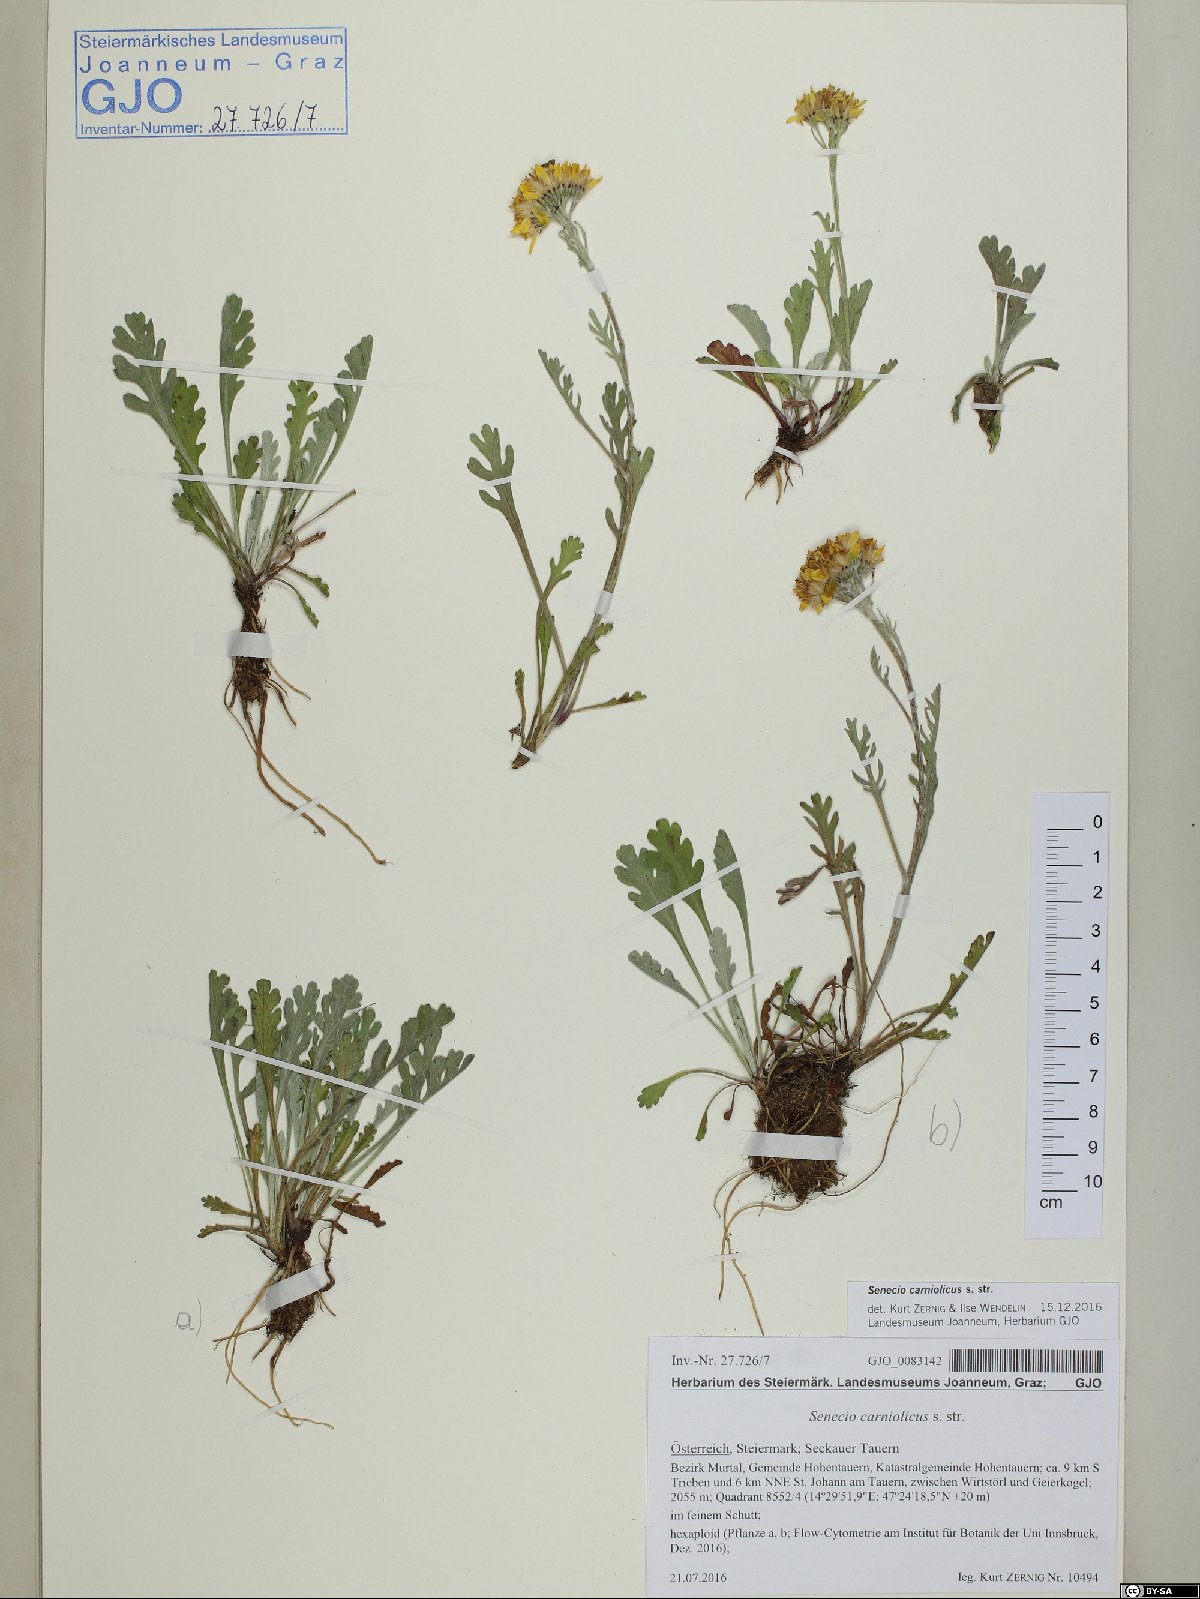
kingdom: Plantae
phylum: Tracheophyta
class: Magnoliopsida
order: Asterales
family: Asteraceae
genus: Jacobaea
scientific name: Jacobaea carniolica
